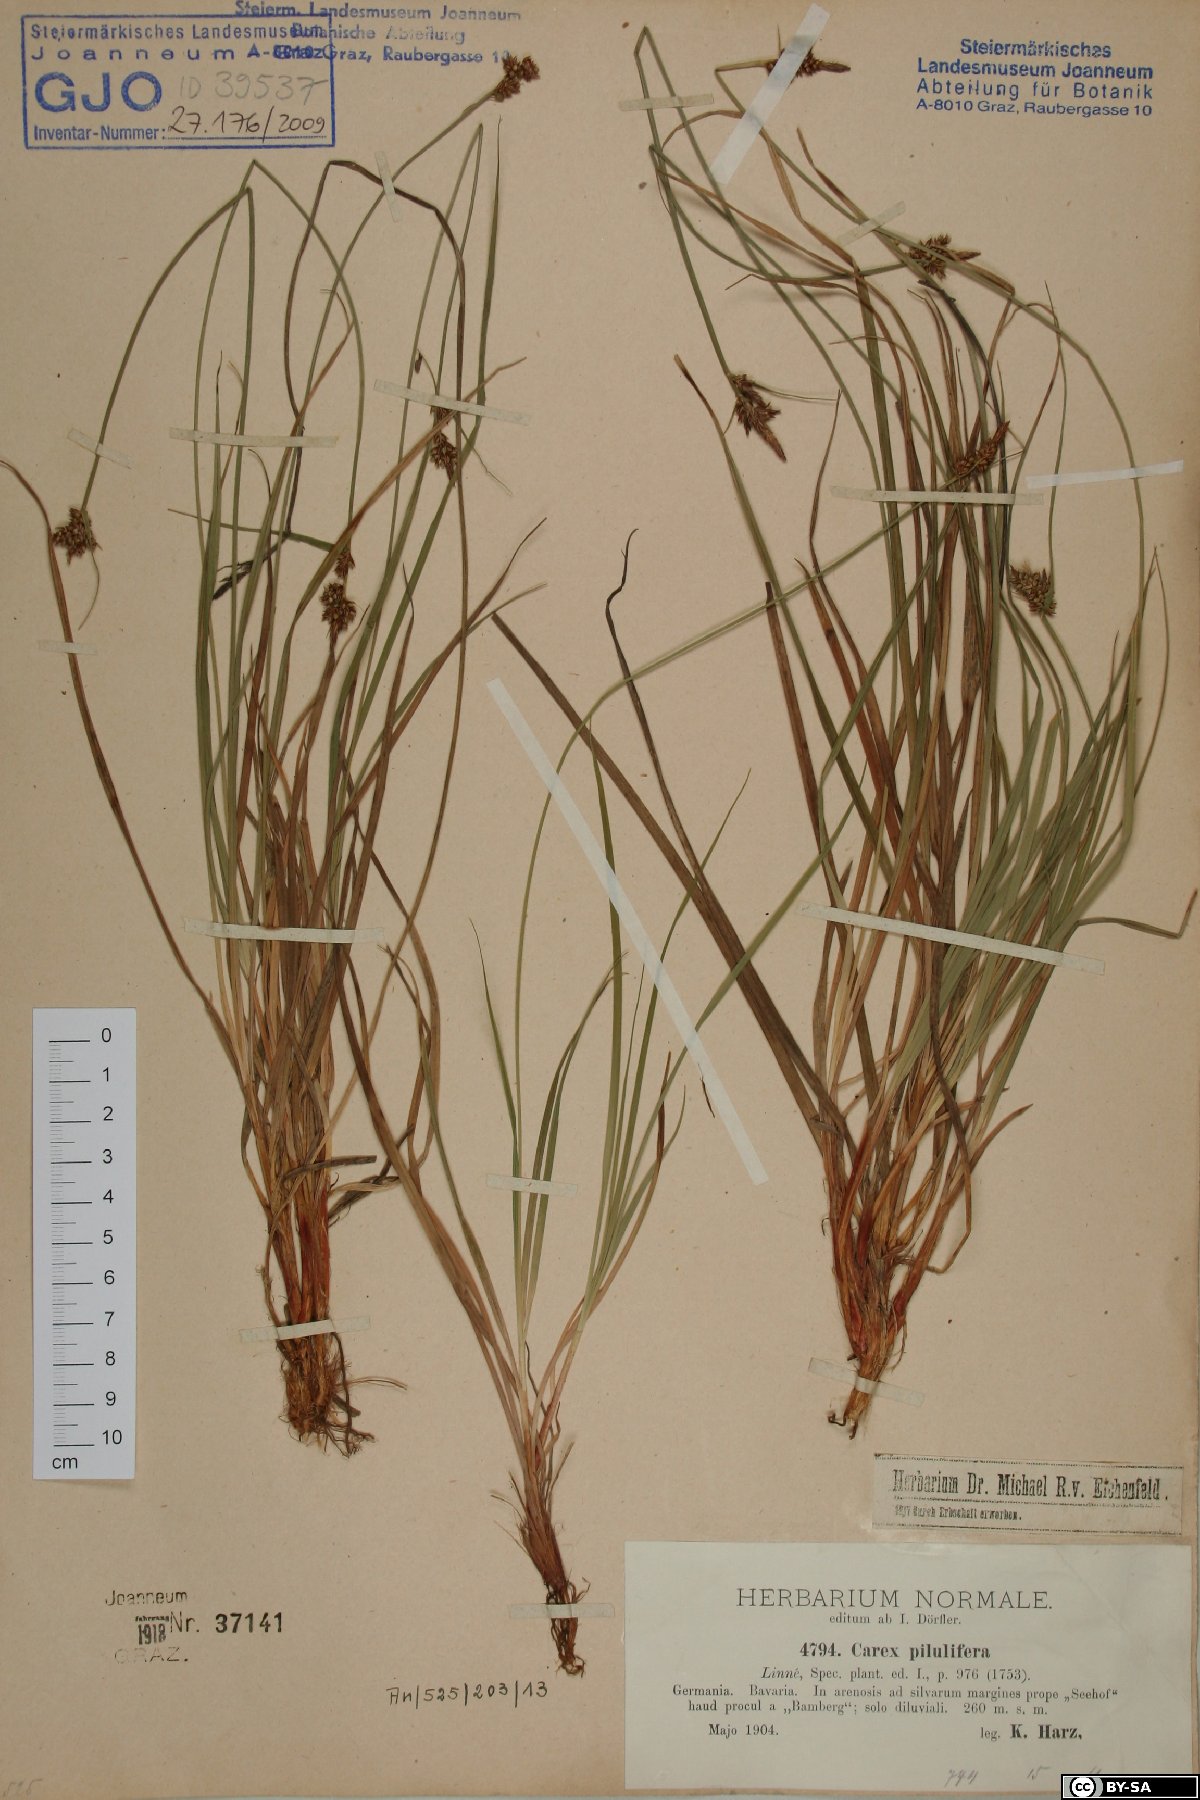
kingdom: Plantae
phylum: Tracheophyta
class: Liliopsida
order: Poales
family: Cyperaceae
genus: Carex
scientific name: Carex pilulifera
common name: Pill sedge
